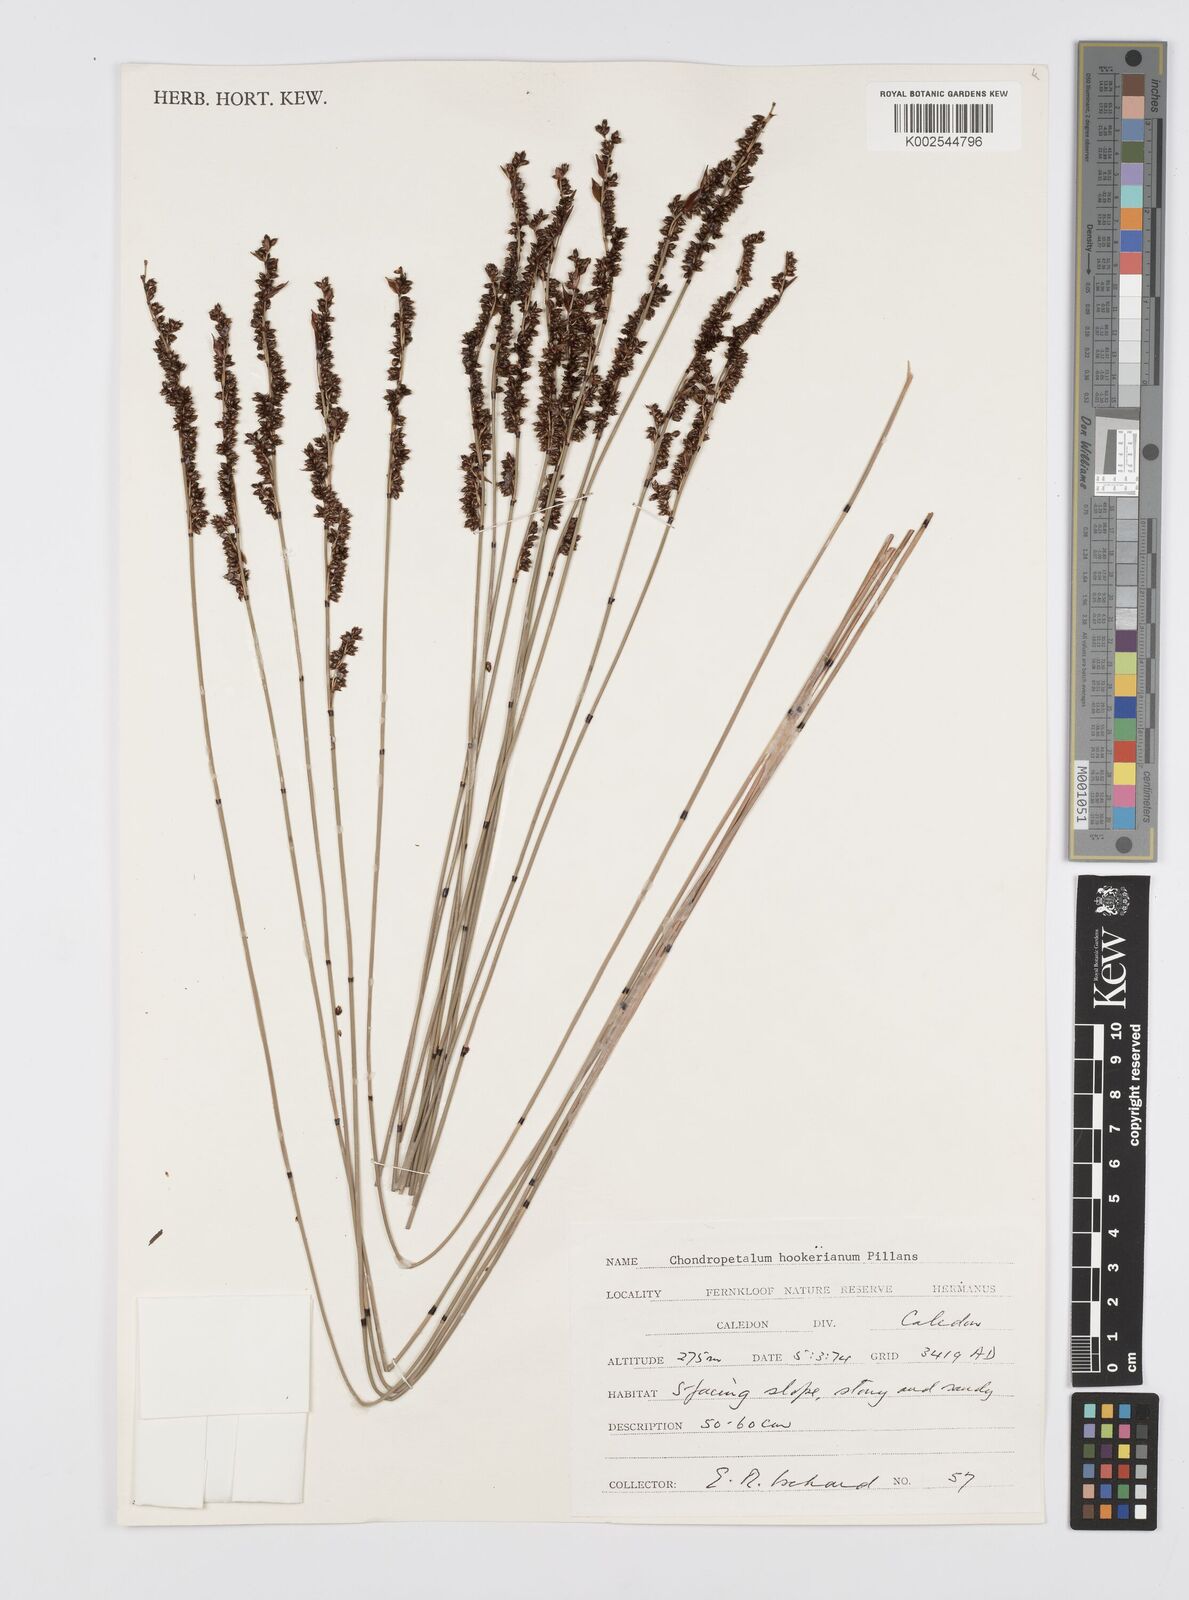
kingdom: Plantae
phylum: Tracheophyta
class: Liliopsida
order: Poales
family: Restionaceae
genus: Elegia
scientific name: Elegia hookeriana
